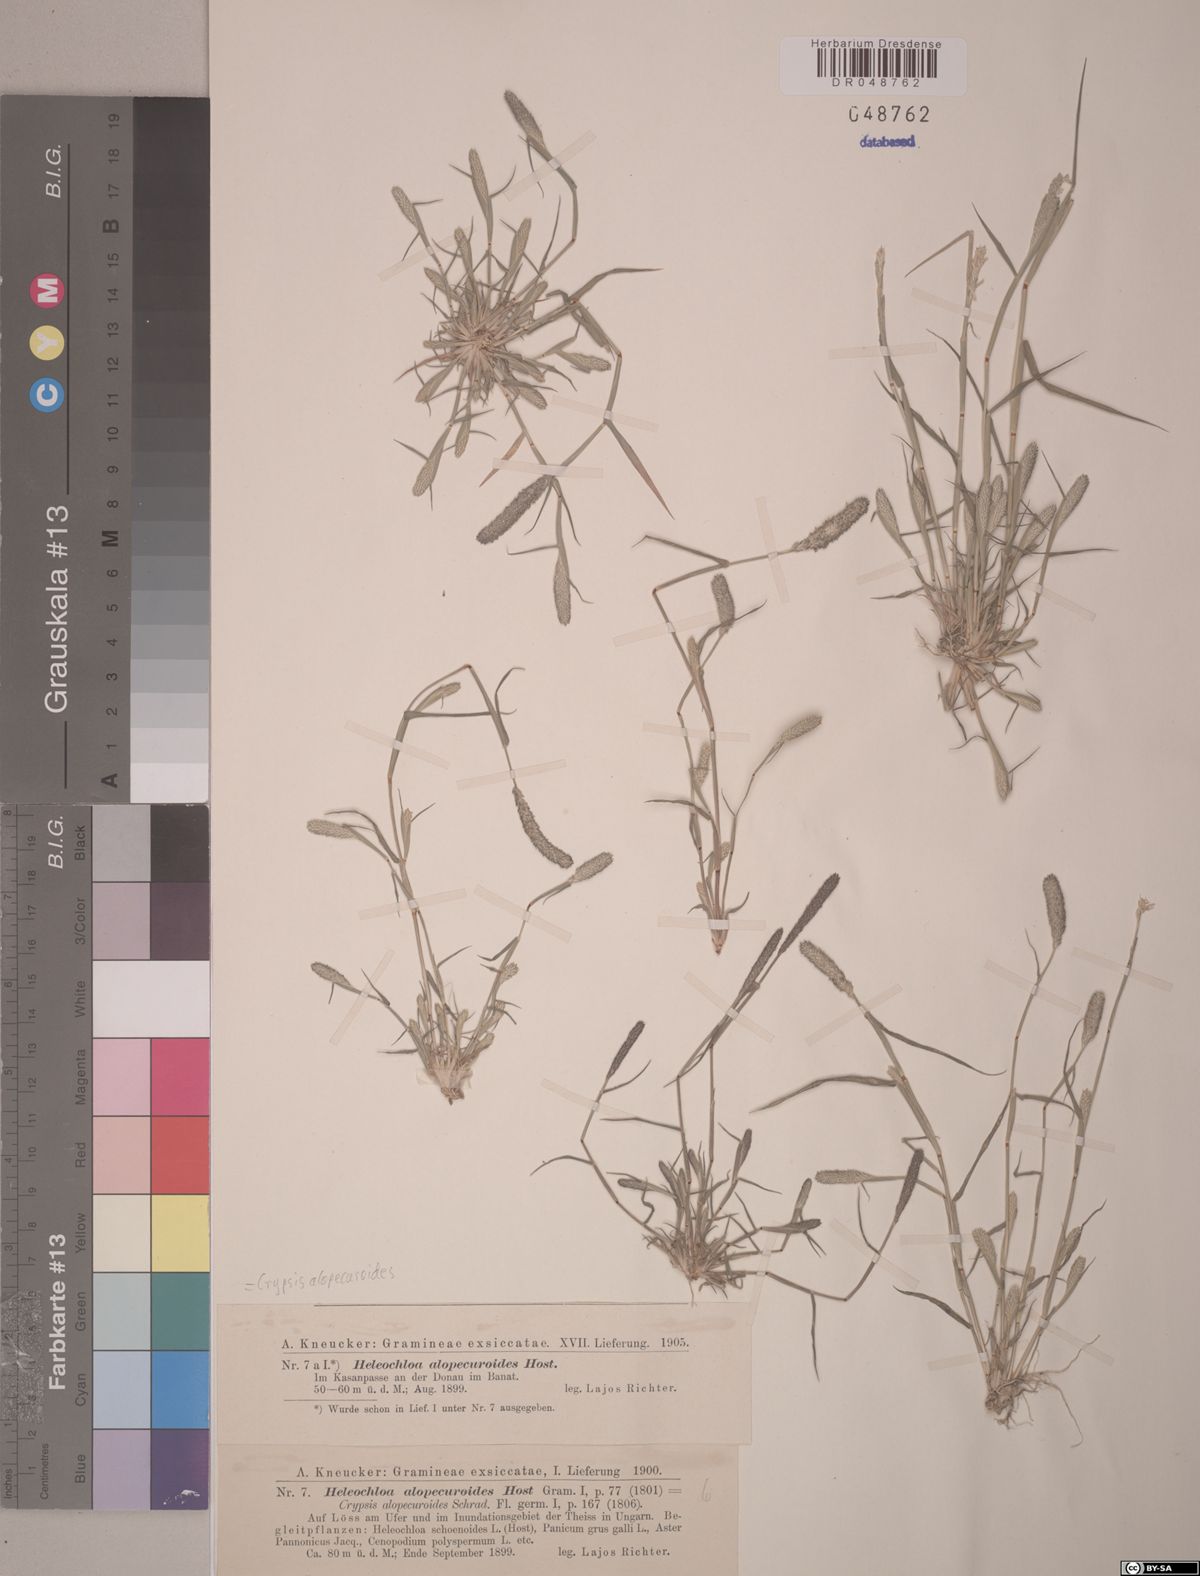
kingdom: Plantae
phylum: Tracheophyta
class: Liliopsida
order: Poales
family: Poaceae
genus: Sporobolus
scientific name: Sporobolus alopecuroides
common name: Foxtail pricklegrass
